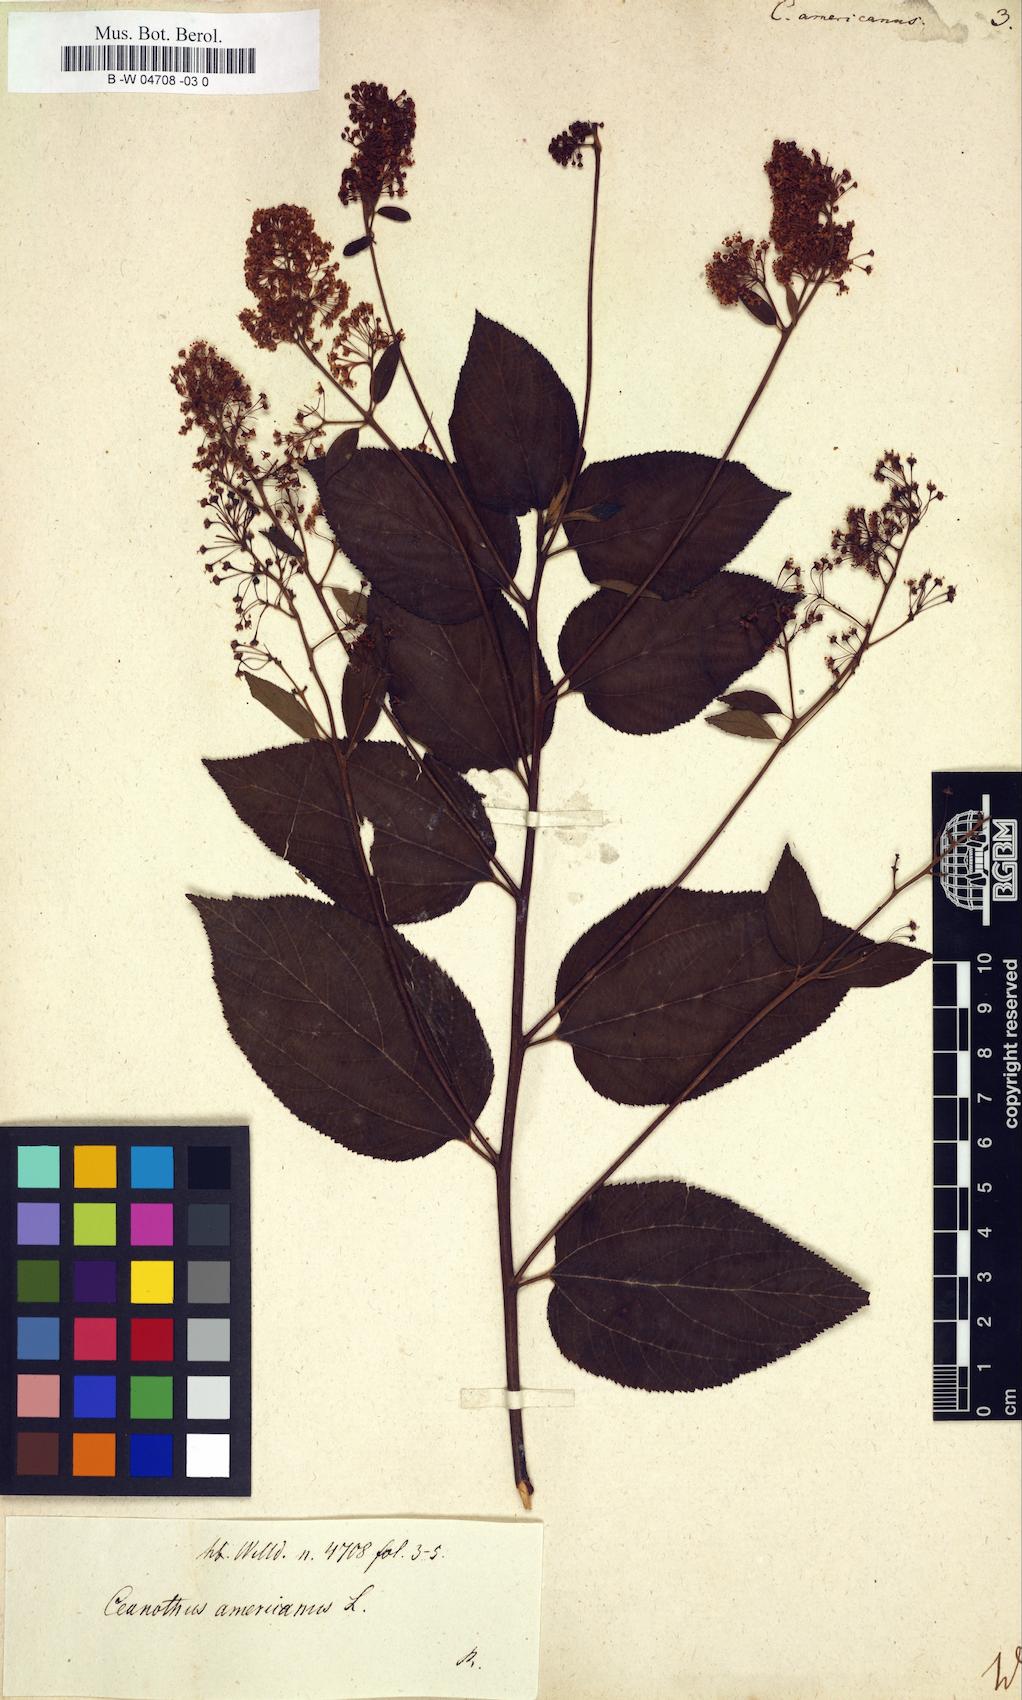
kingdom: Plantae
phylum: Tracheophyta
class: Magnoliopsida
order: Rosales
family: Rhamnaceae
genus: Ceanothus
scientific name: Ceanothus americanus
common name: Redroot
